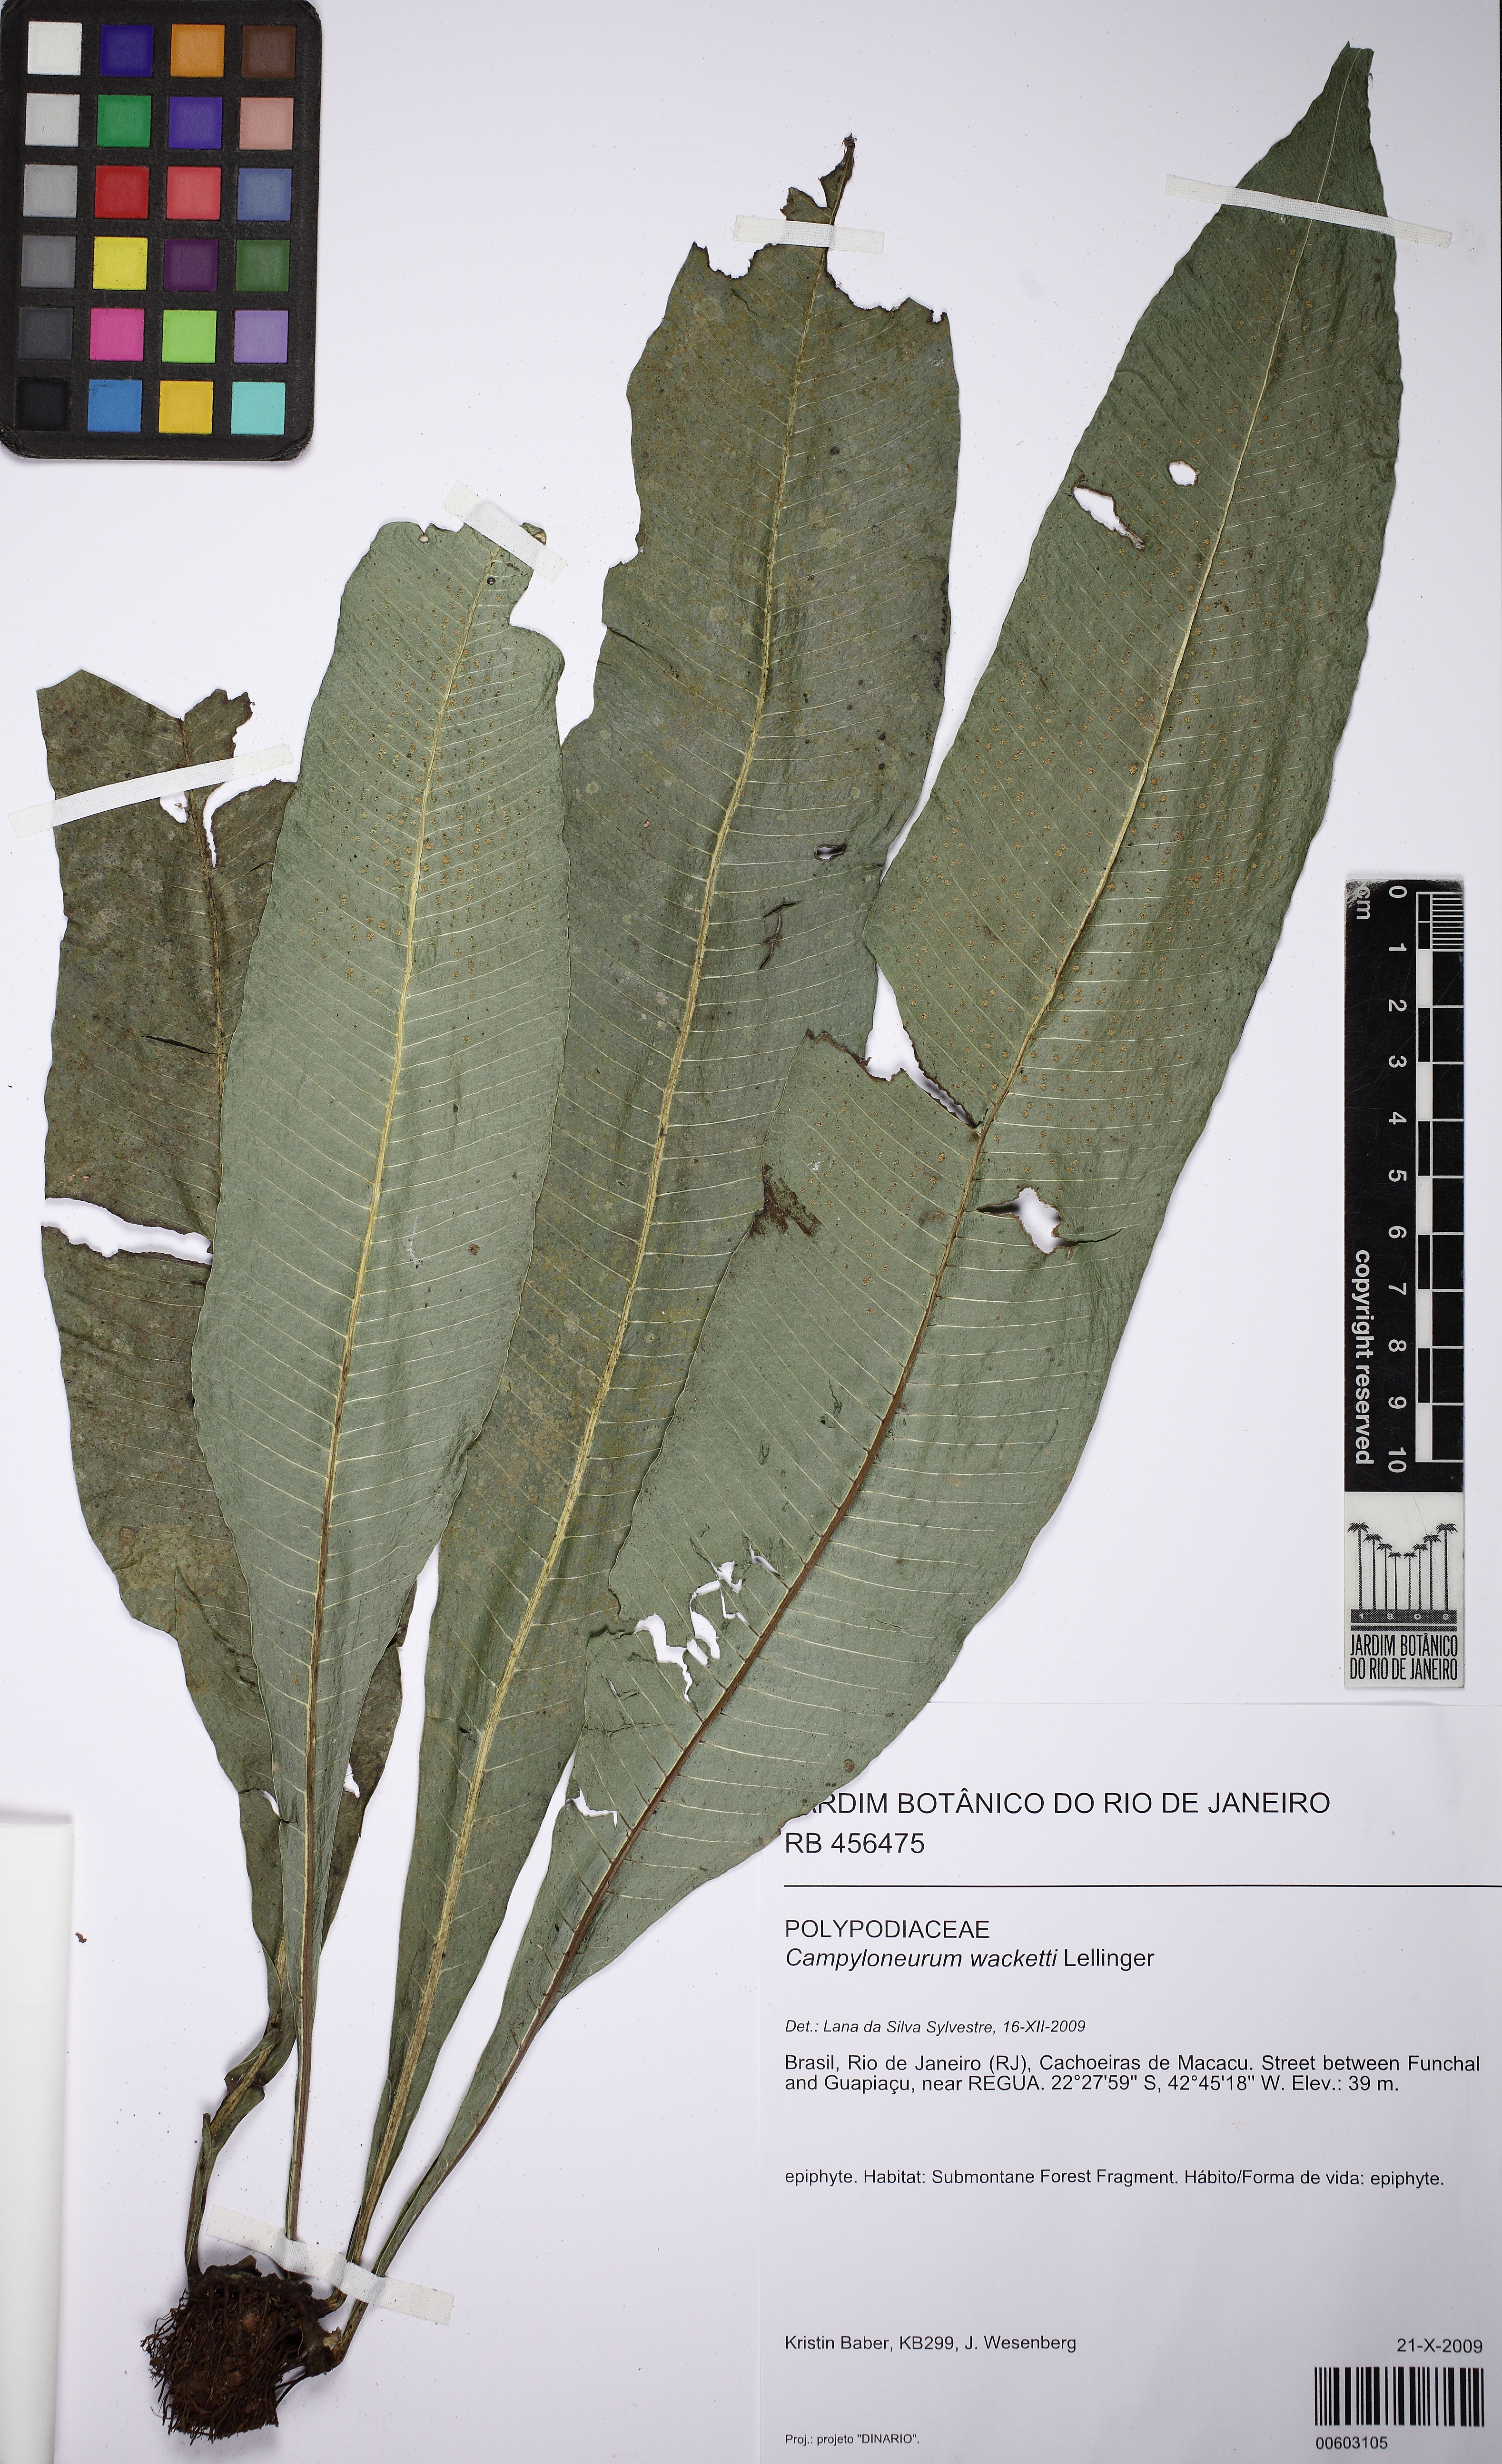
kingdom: Plantae
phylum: Tracheophyta
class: Polypodiopsida
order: Polypodiales
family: Polypodiaceae
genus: Campyloneurum
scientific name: Campyloneurum crispum
